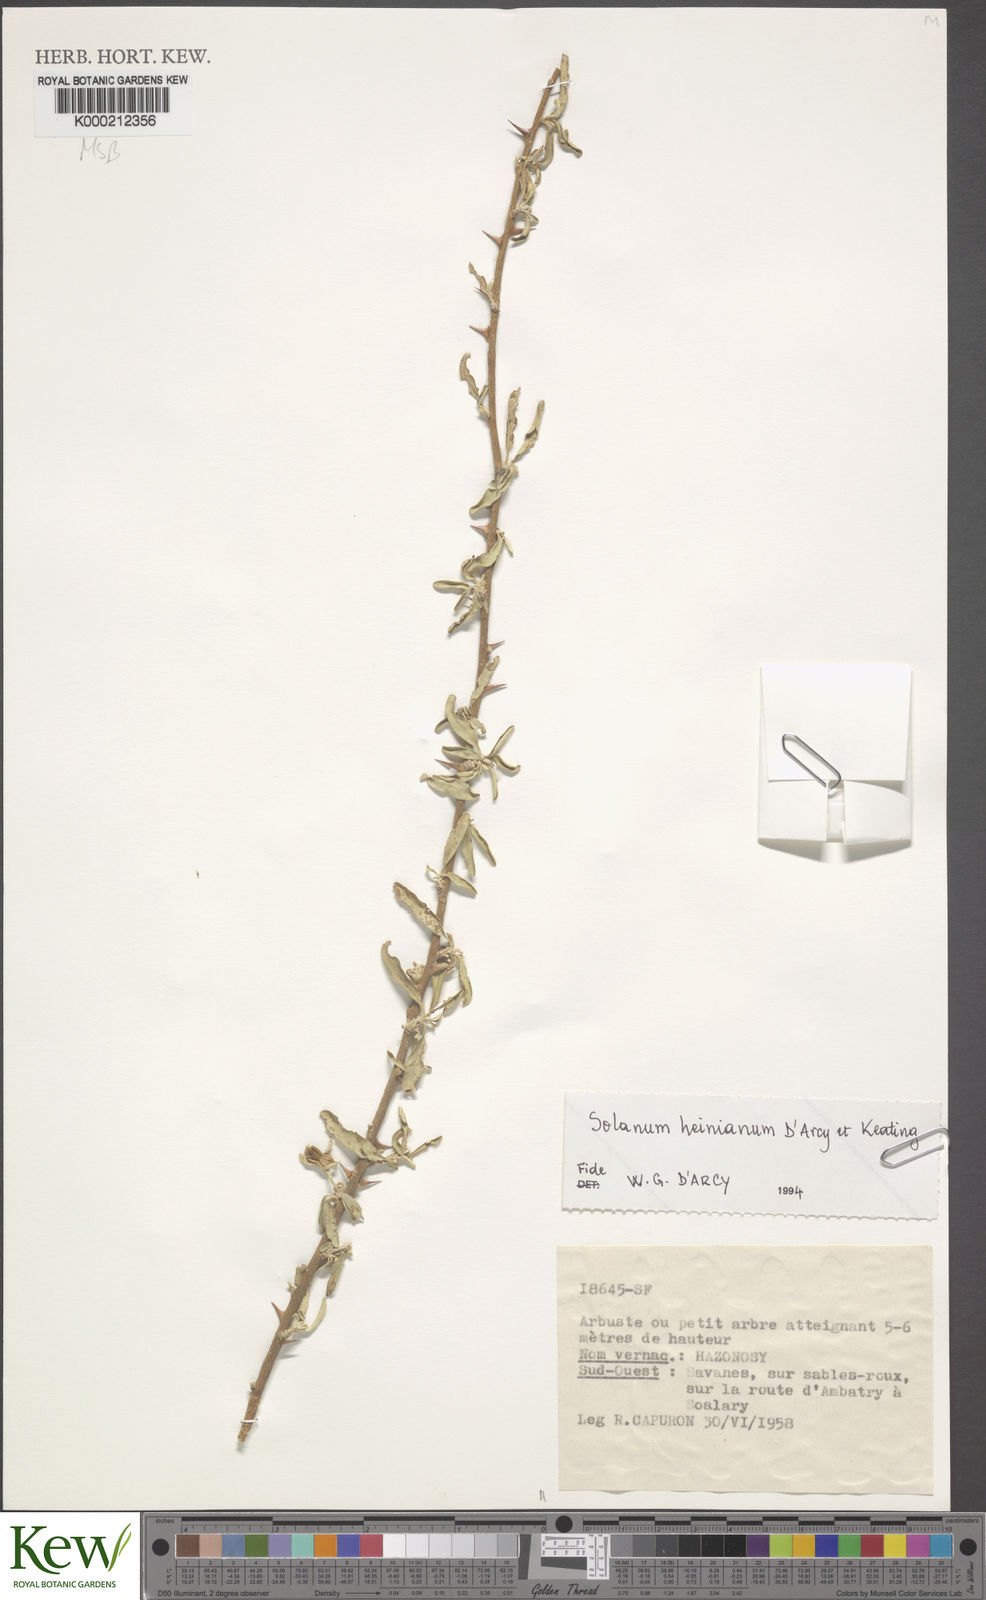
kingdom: Plantae
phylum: Tracheophyta
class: Magnoliopsida
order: Solanales
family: Solanaceae
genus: Solanum
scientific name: Solanum heinianum
